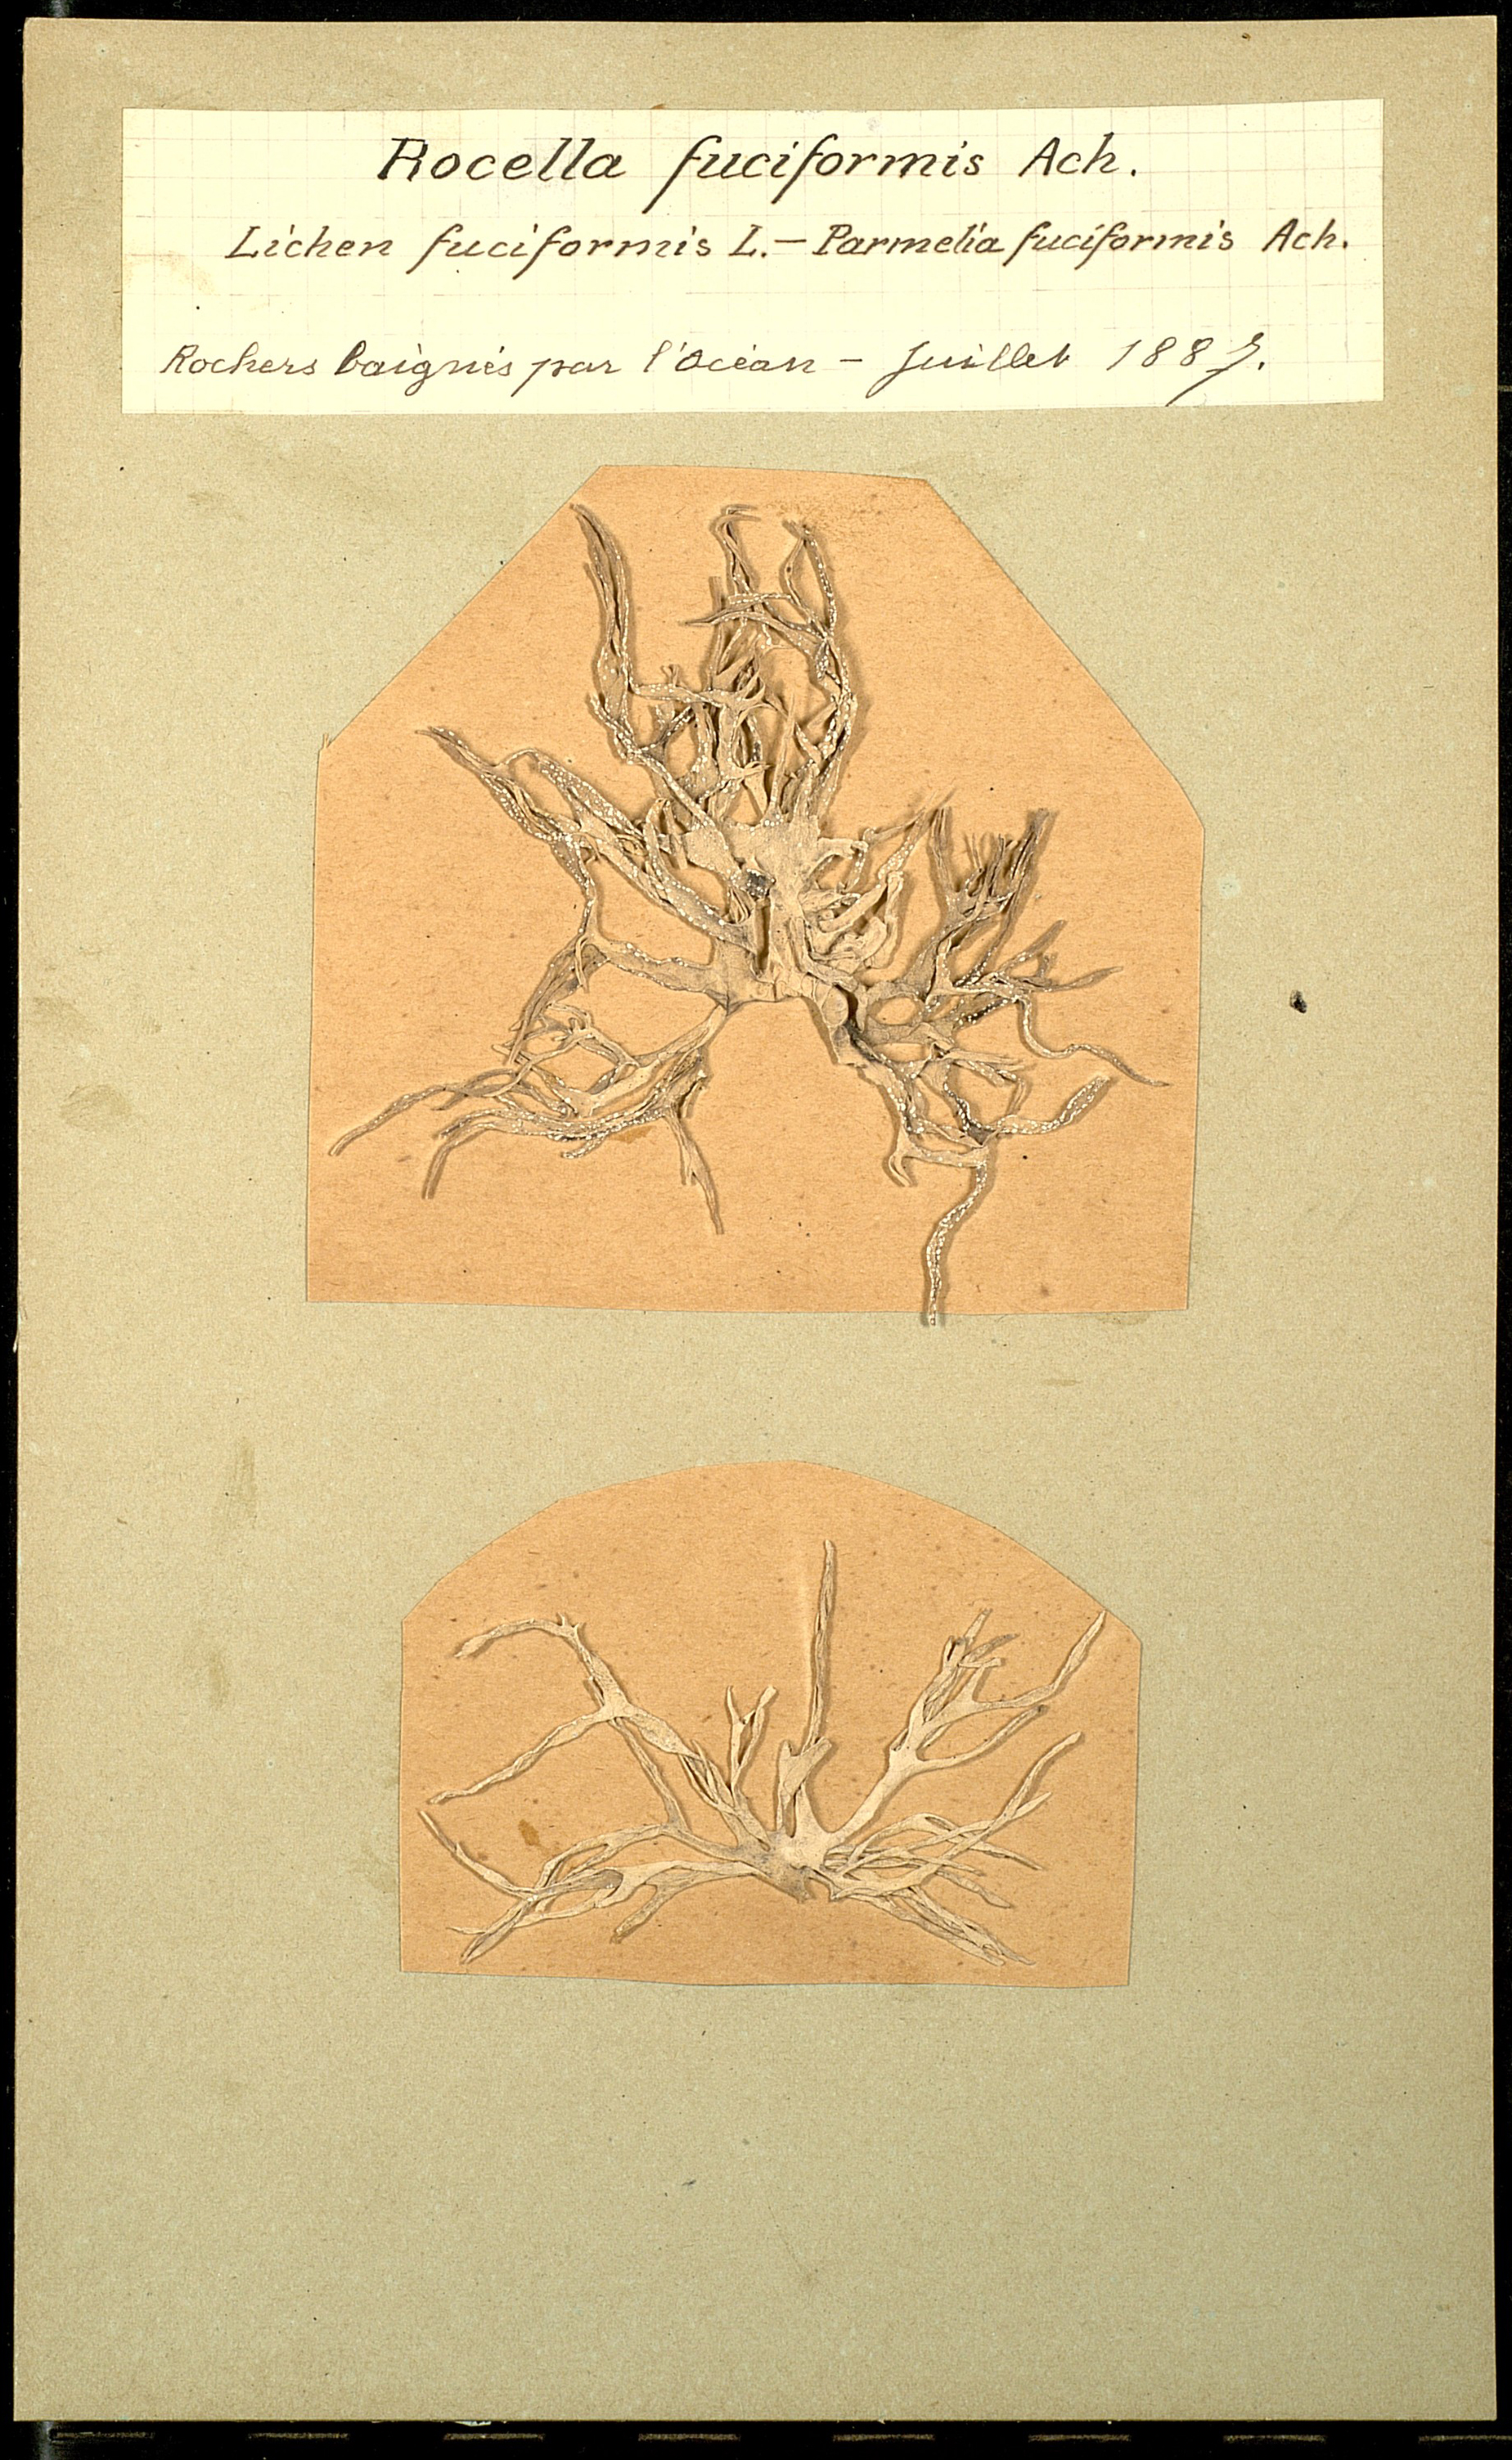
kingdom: Fungi
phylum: Ascomycota
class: Arthoniomycetes
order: Arthoniales
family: Roccellaceae
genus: Roccella
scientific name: Roccella fuciformis
